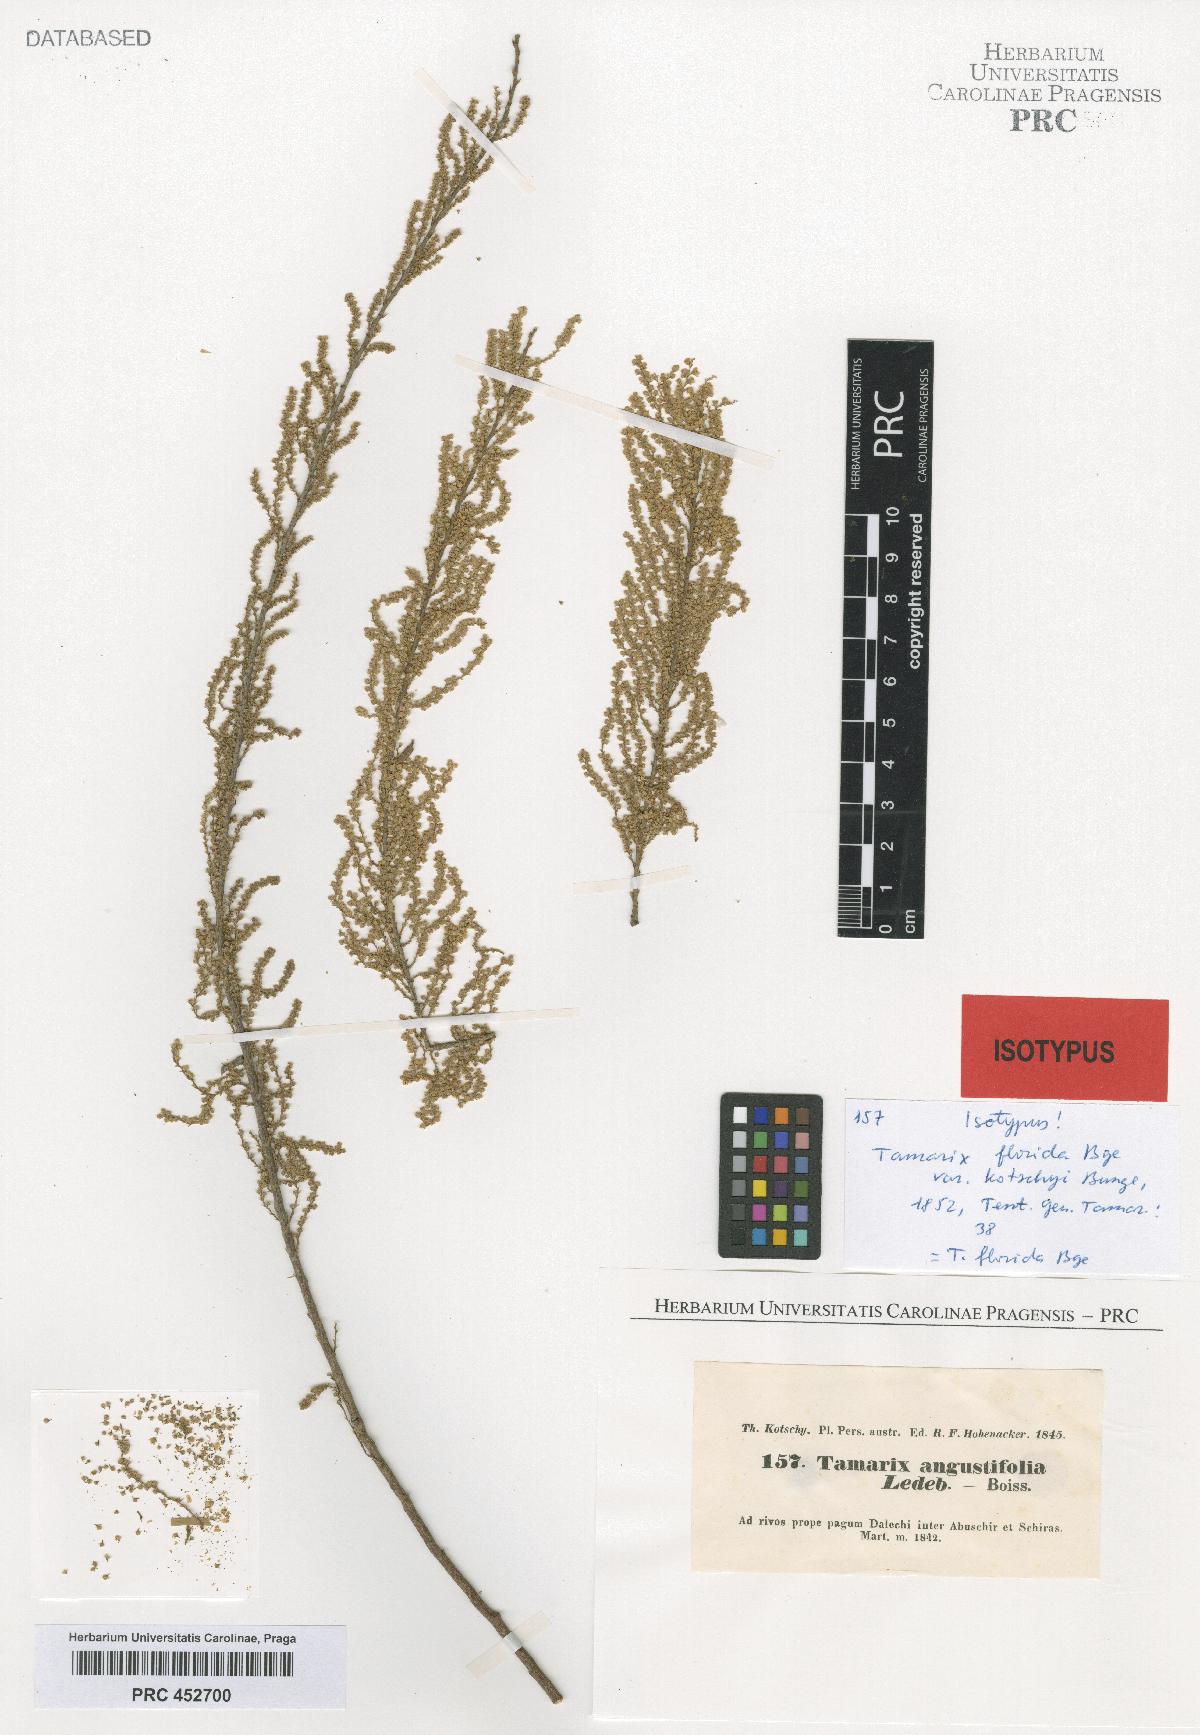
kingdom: Plantae
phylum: Tracheophyta
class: Magnoliopsida
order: Caryophyllales
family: Tamaricaceae
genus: Tamarix
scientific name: Tamarix florida
